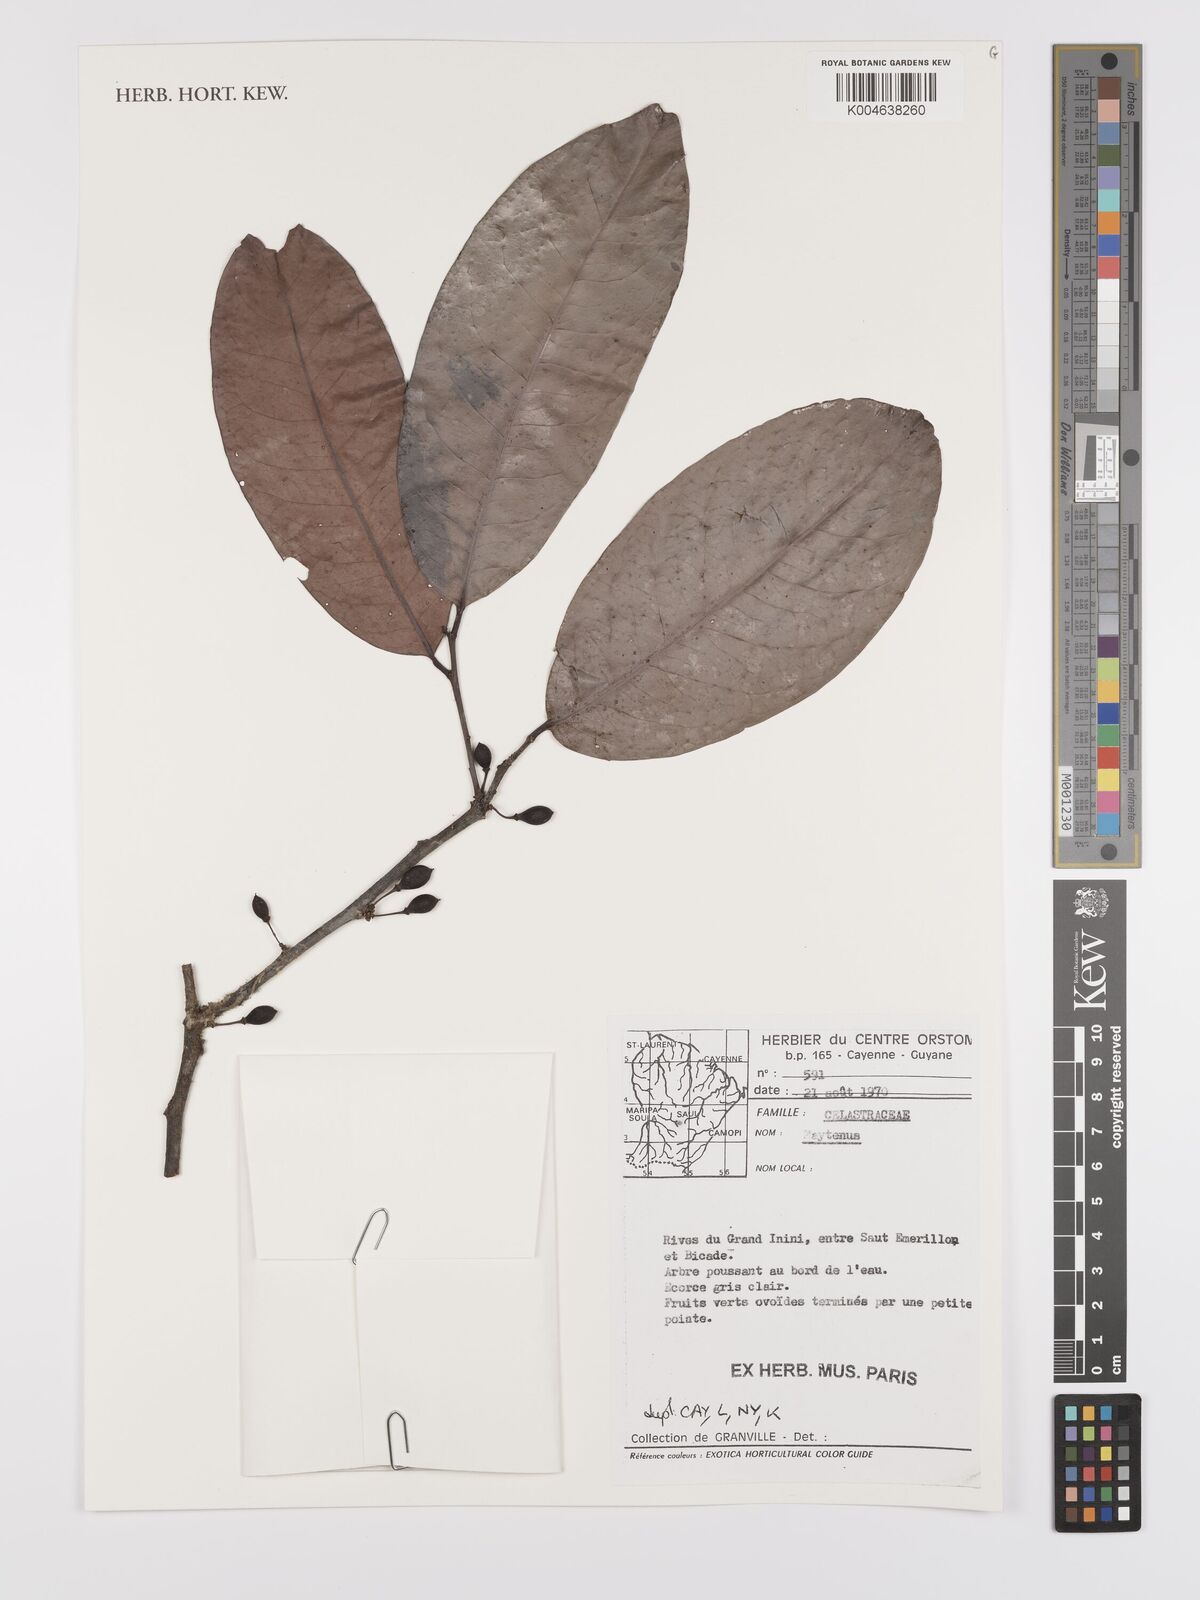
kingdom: Plantae
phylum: Tracheophyta
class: Magnoliopsida
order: Celastrales
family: Celastraceae
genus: Maytenus
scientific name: Maytenus
